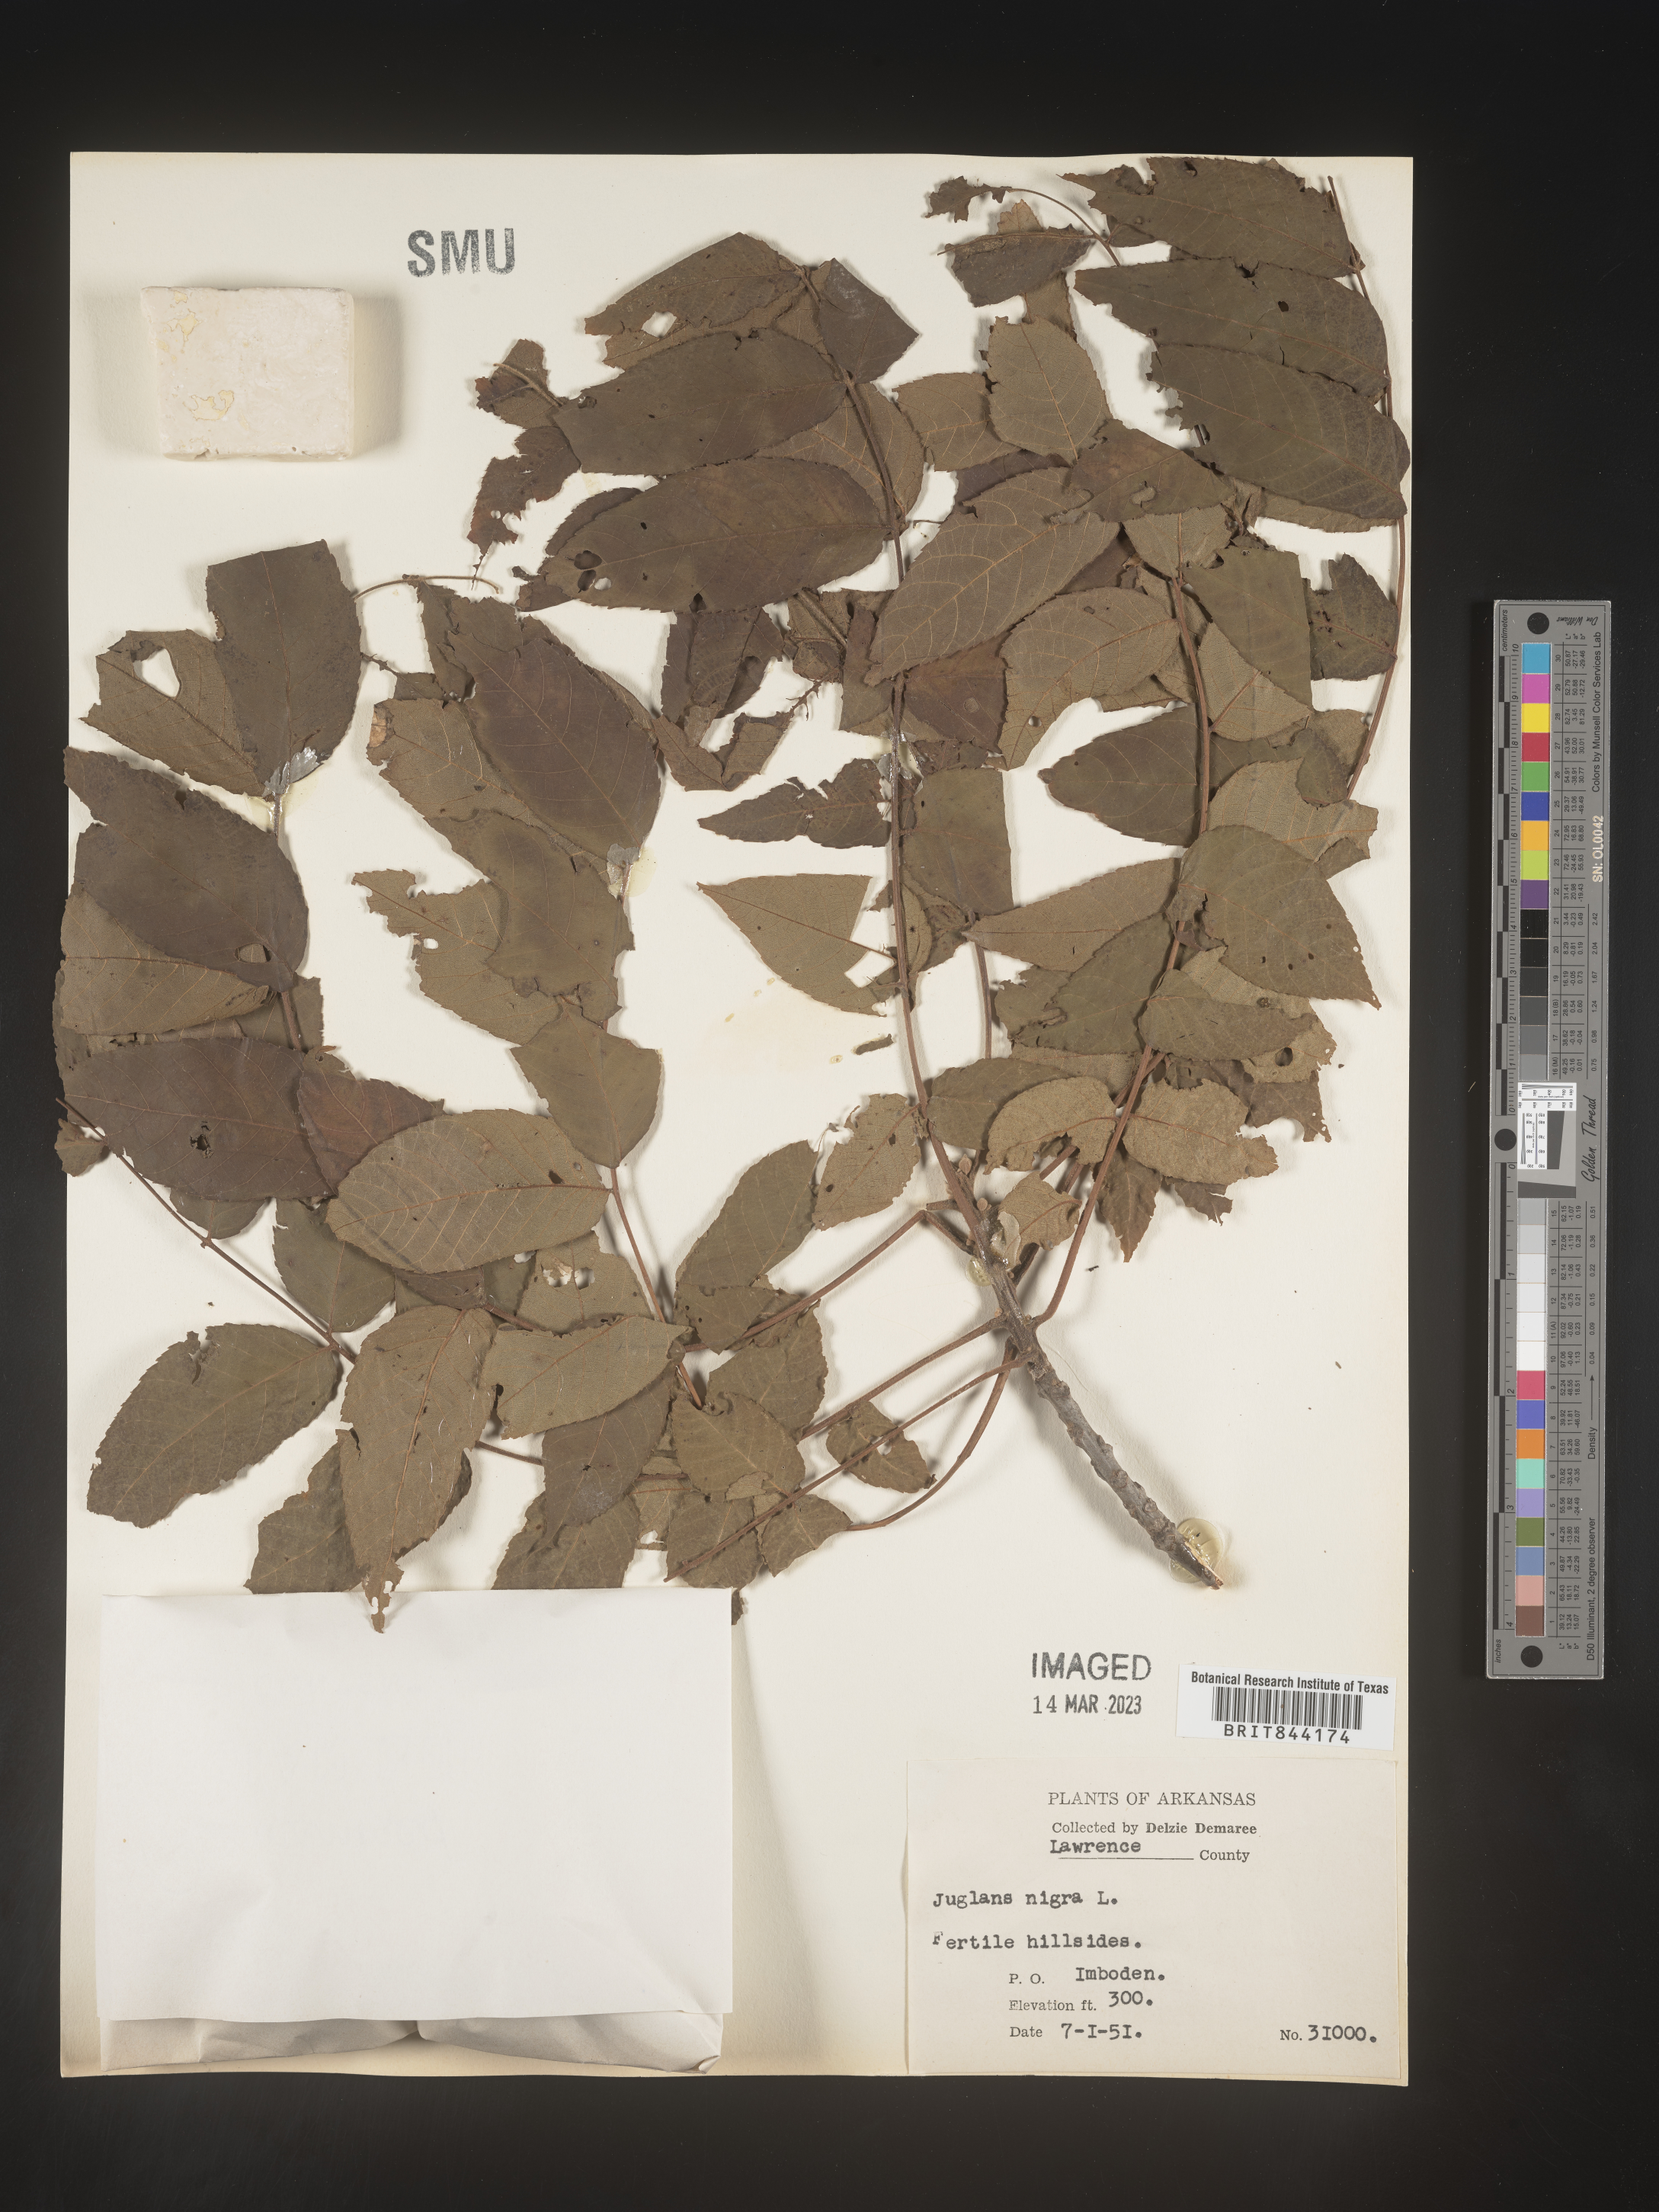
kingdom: Plantae
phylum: Tracheophyta
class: Magnoliopsida
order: Fagales
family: Juglandaceae
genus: Juglans
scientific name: Juglans nigra
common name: Black walnut
